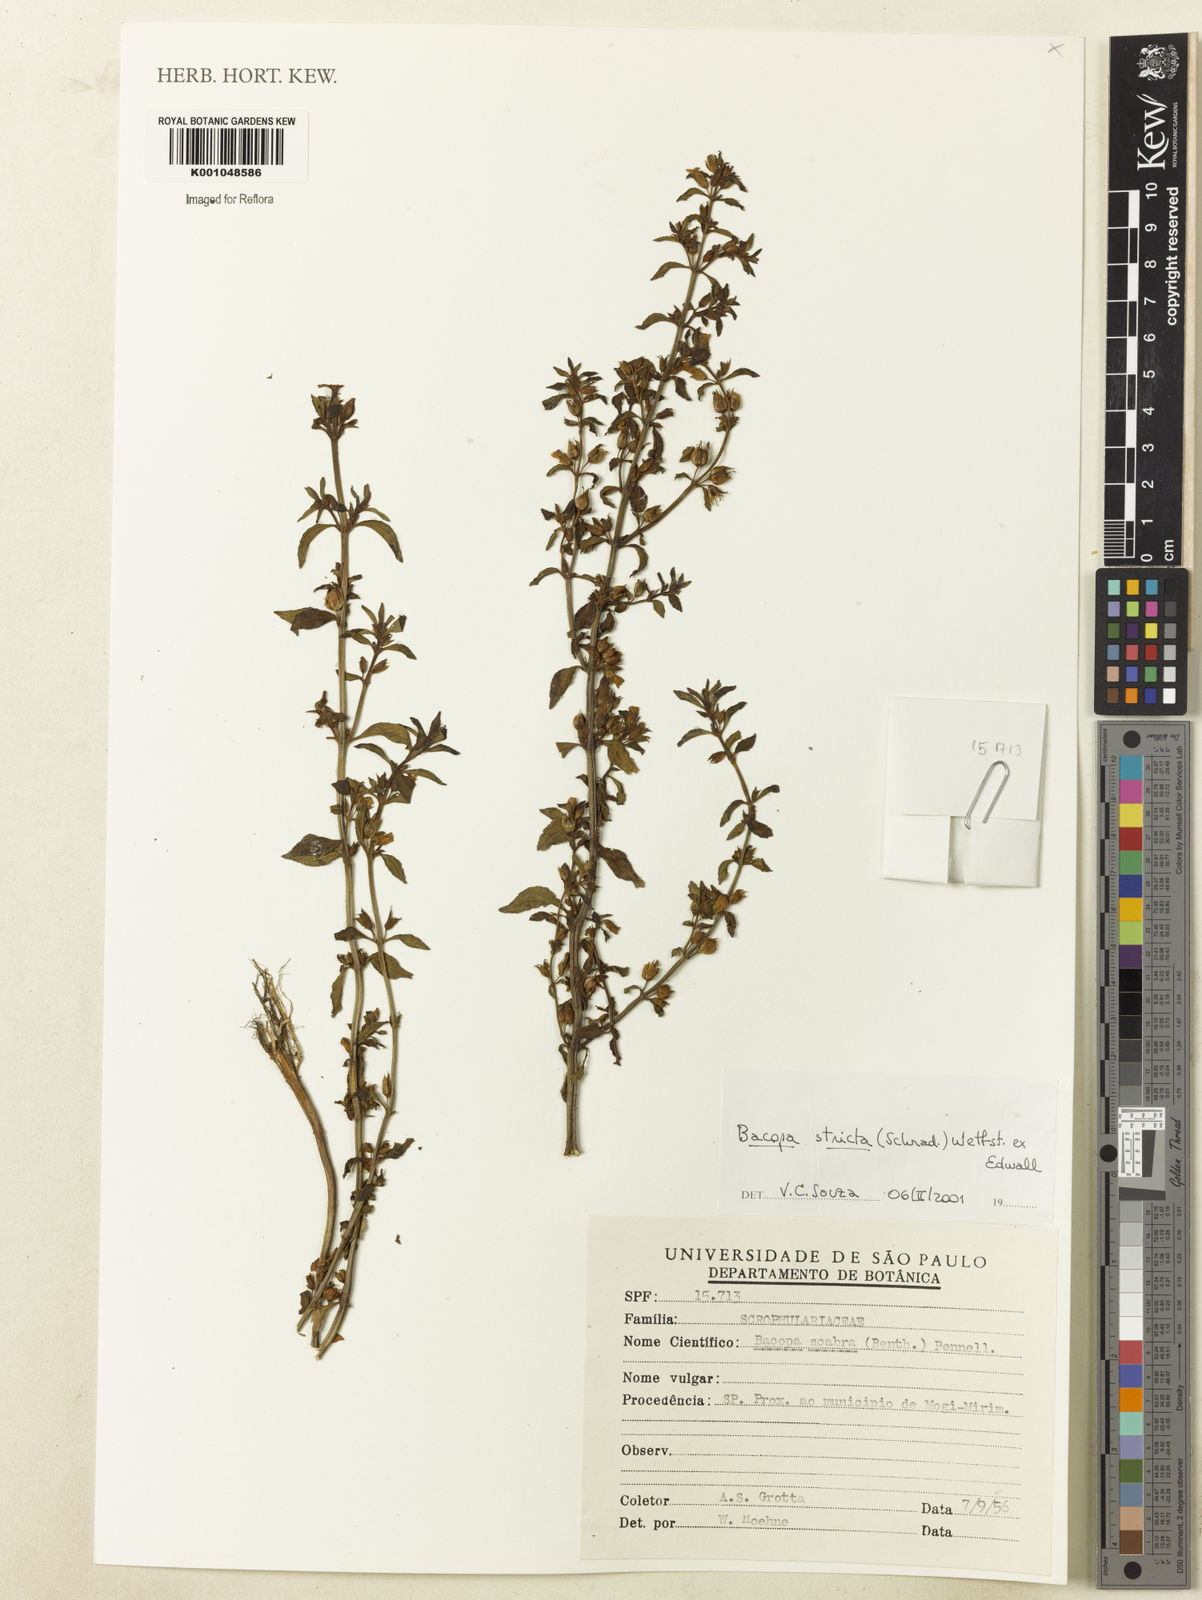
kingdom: Plantae
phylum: Tracheophyta
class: Magnoliopsida
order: Lamiales
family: Plantaginaceae
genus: Bacopa
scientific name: Bacopa stricta
